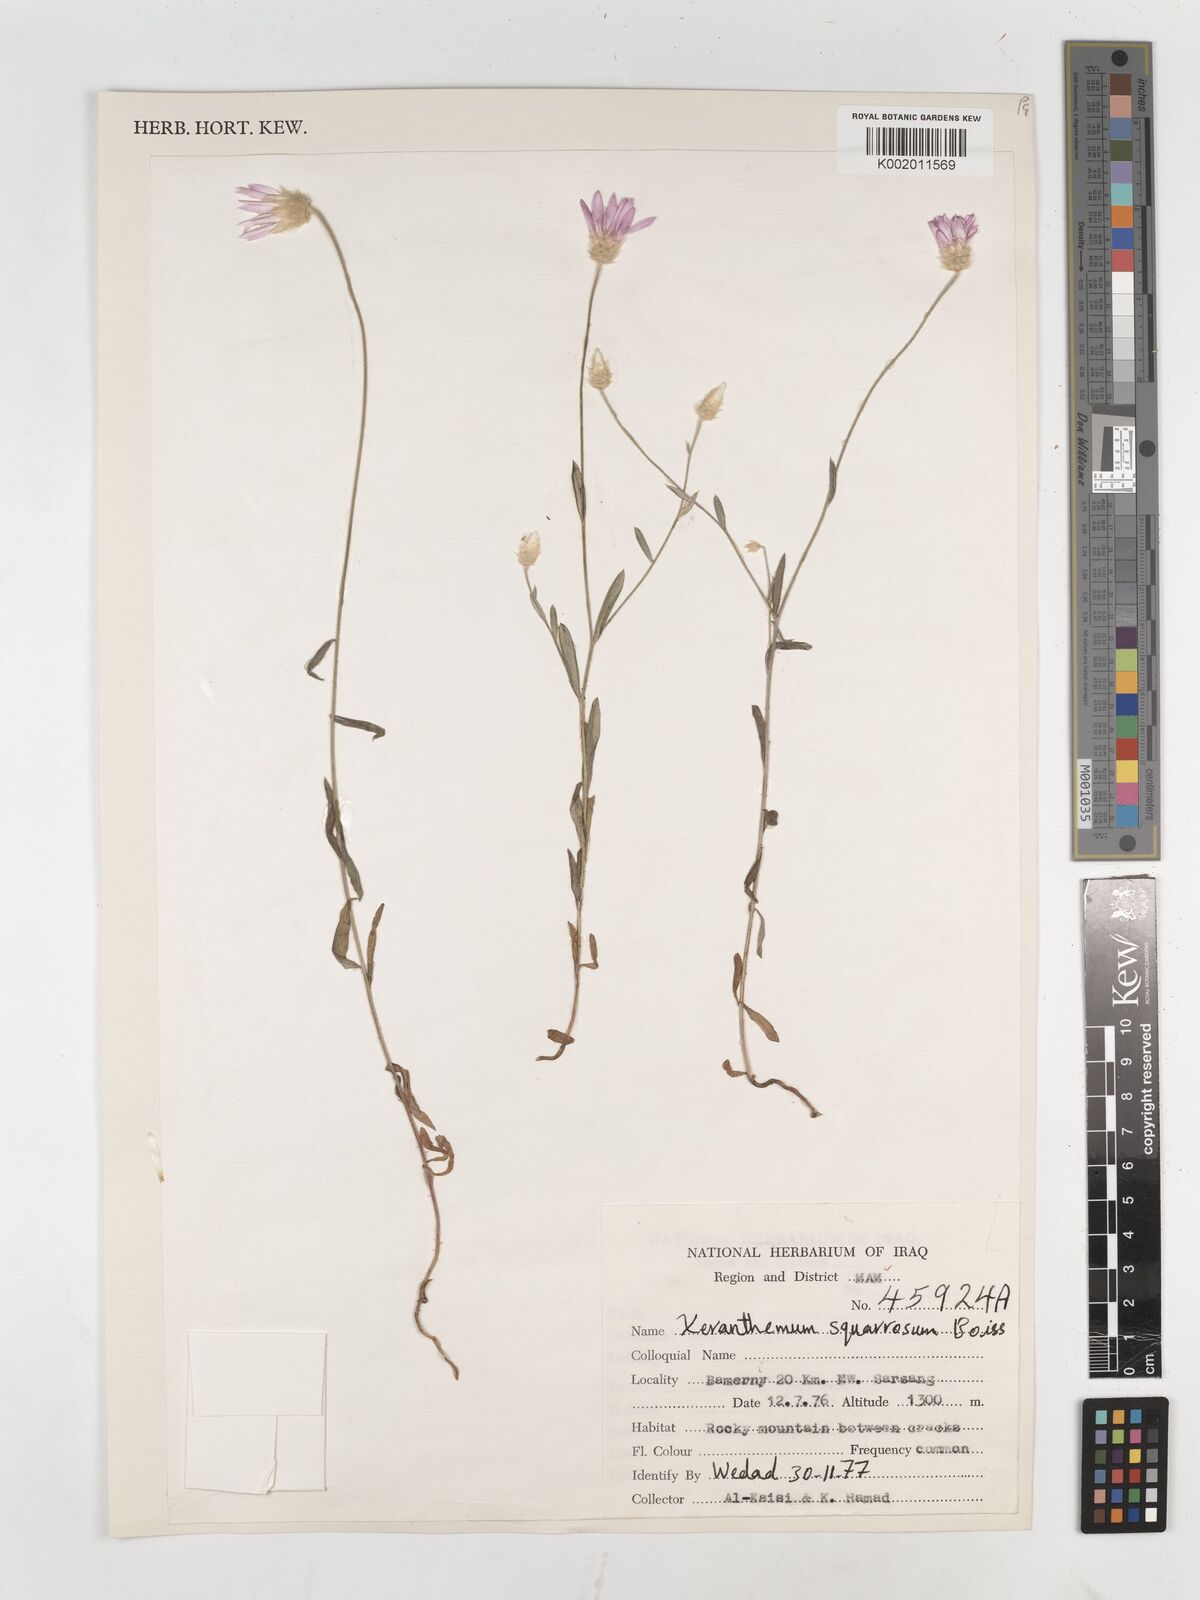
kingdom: Plantae
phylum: Tracheophyta
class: Magnoliopsida
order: Asterales
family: Asteraceae
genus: Xeranthemum
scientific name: Xeranthemum annuum
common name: Immortelle
